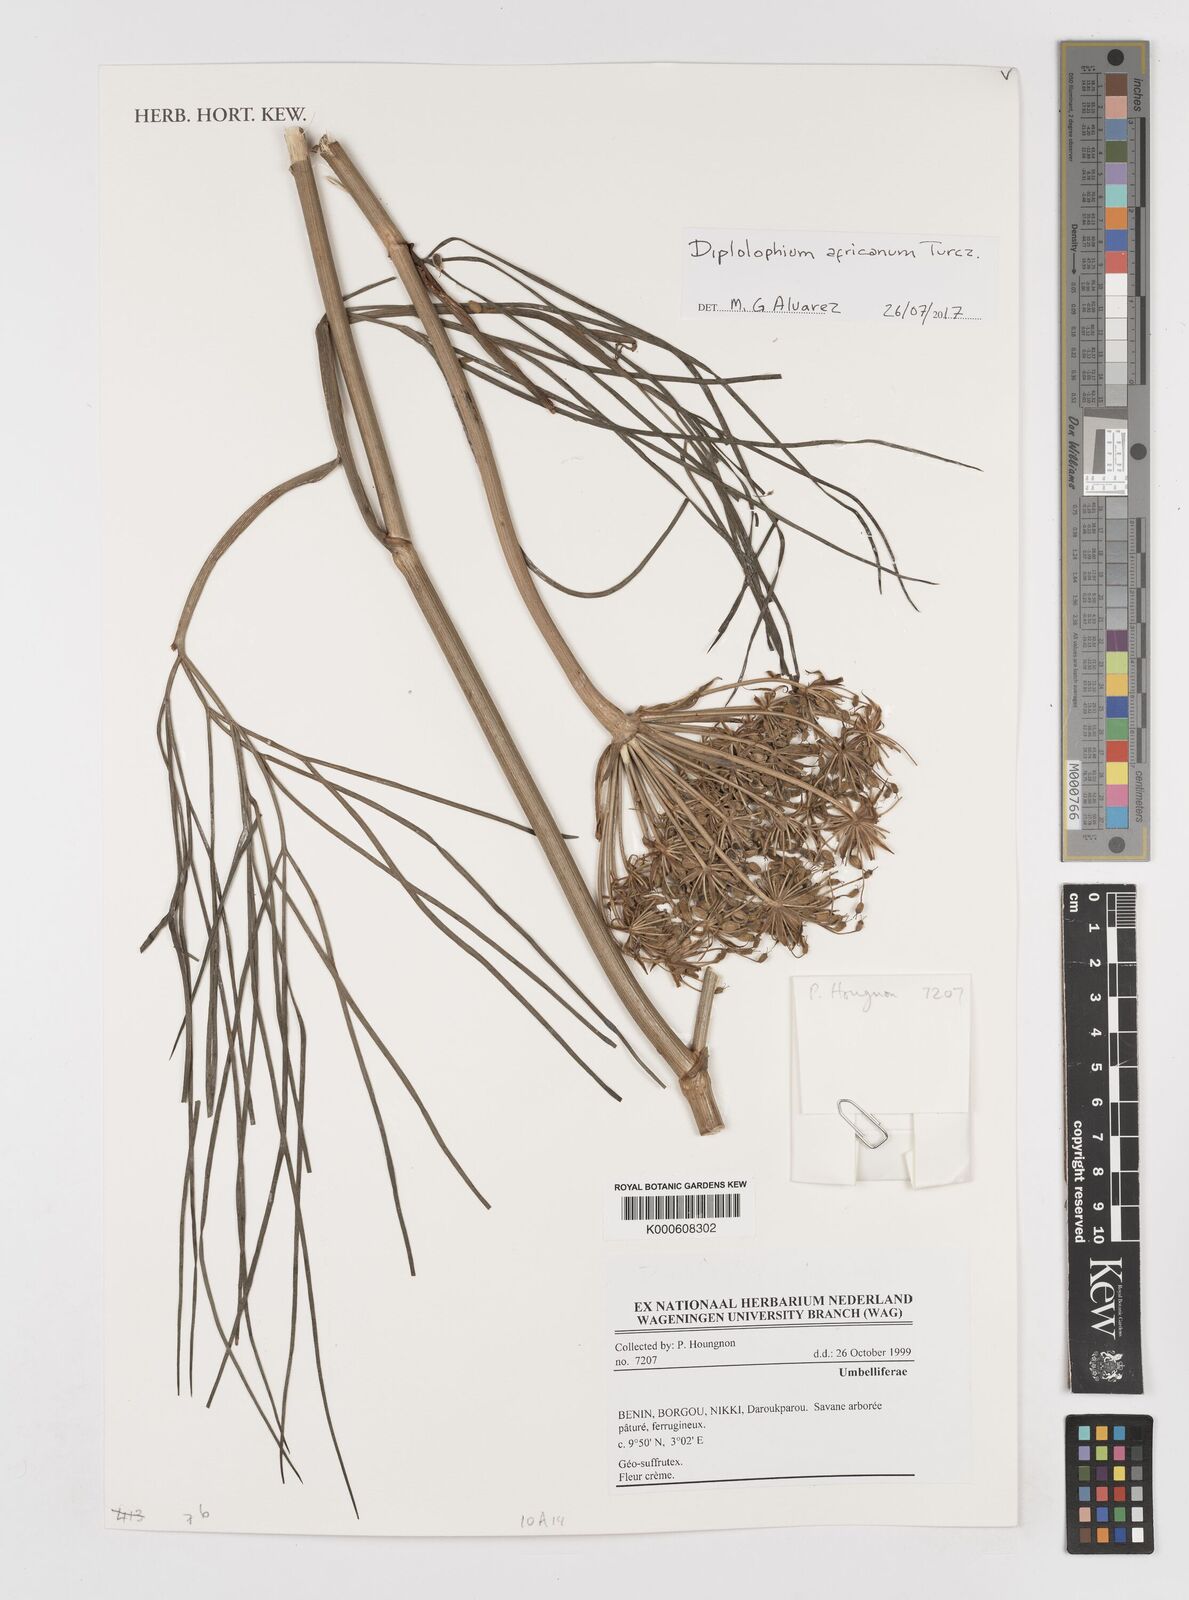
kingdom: Plantae
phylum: Tracheophyta
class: Magnoliopsida
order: Apiales
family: Apiaceae
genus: Diplolophium
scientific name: Diplolophium africanum
